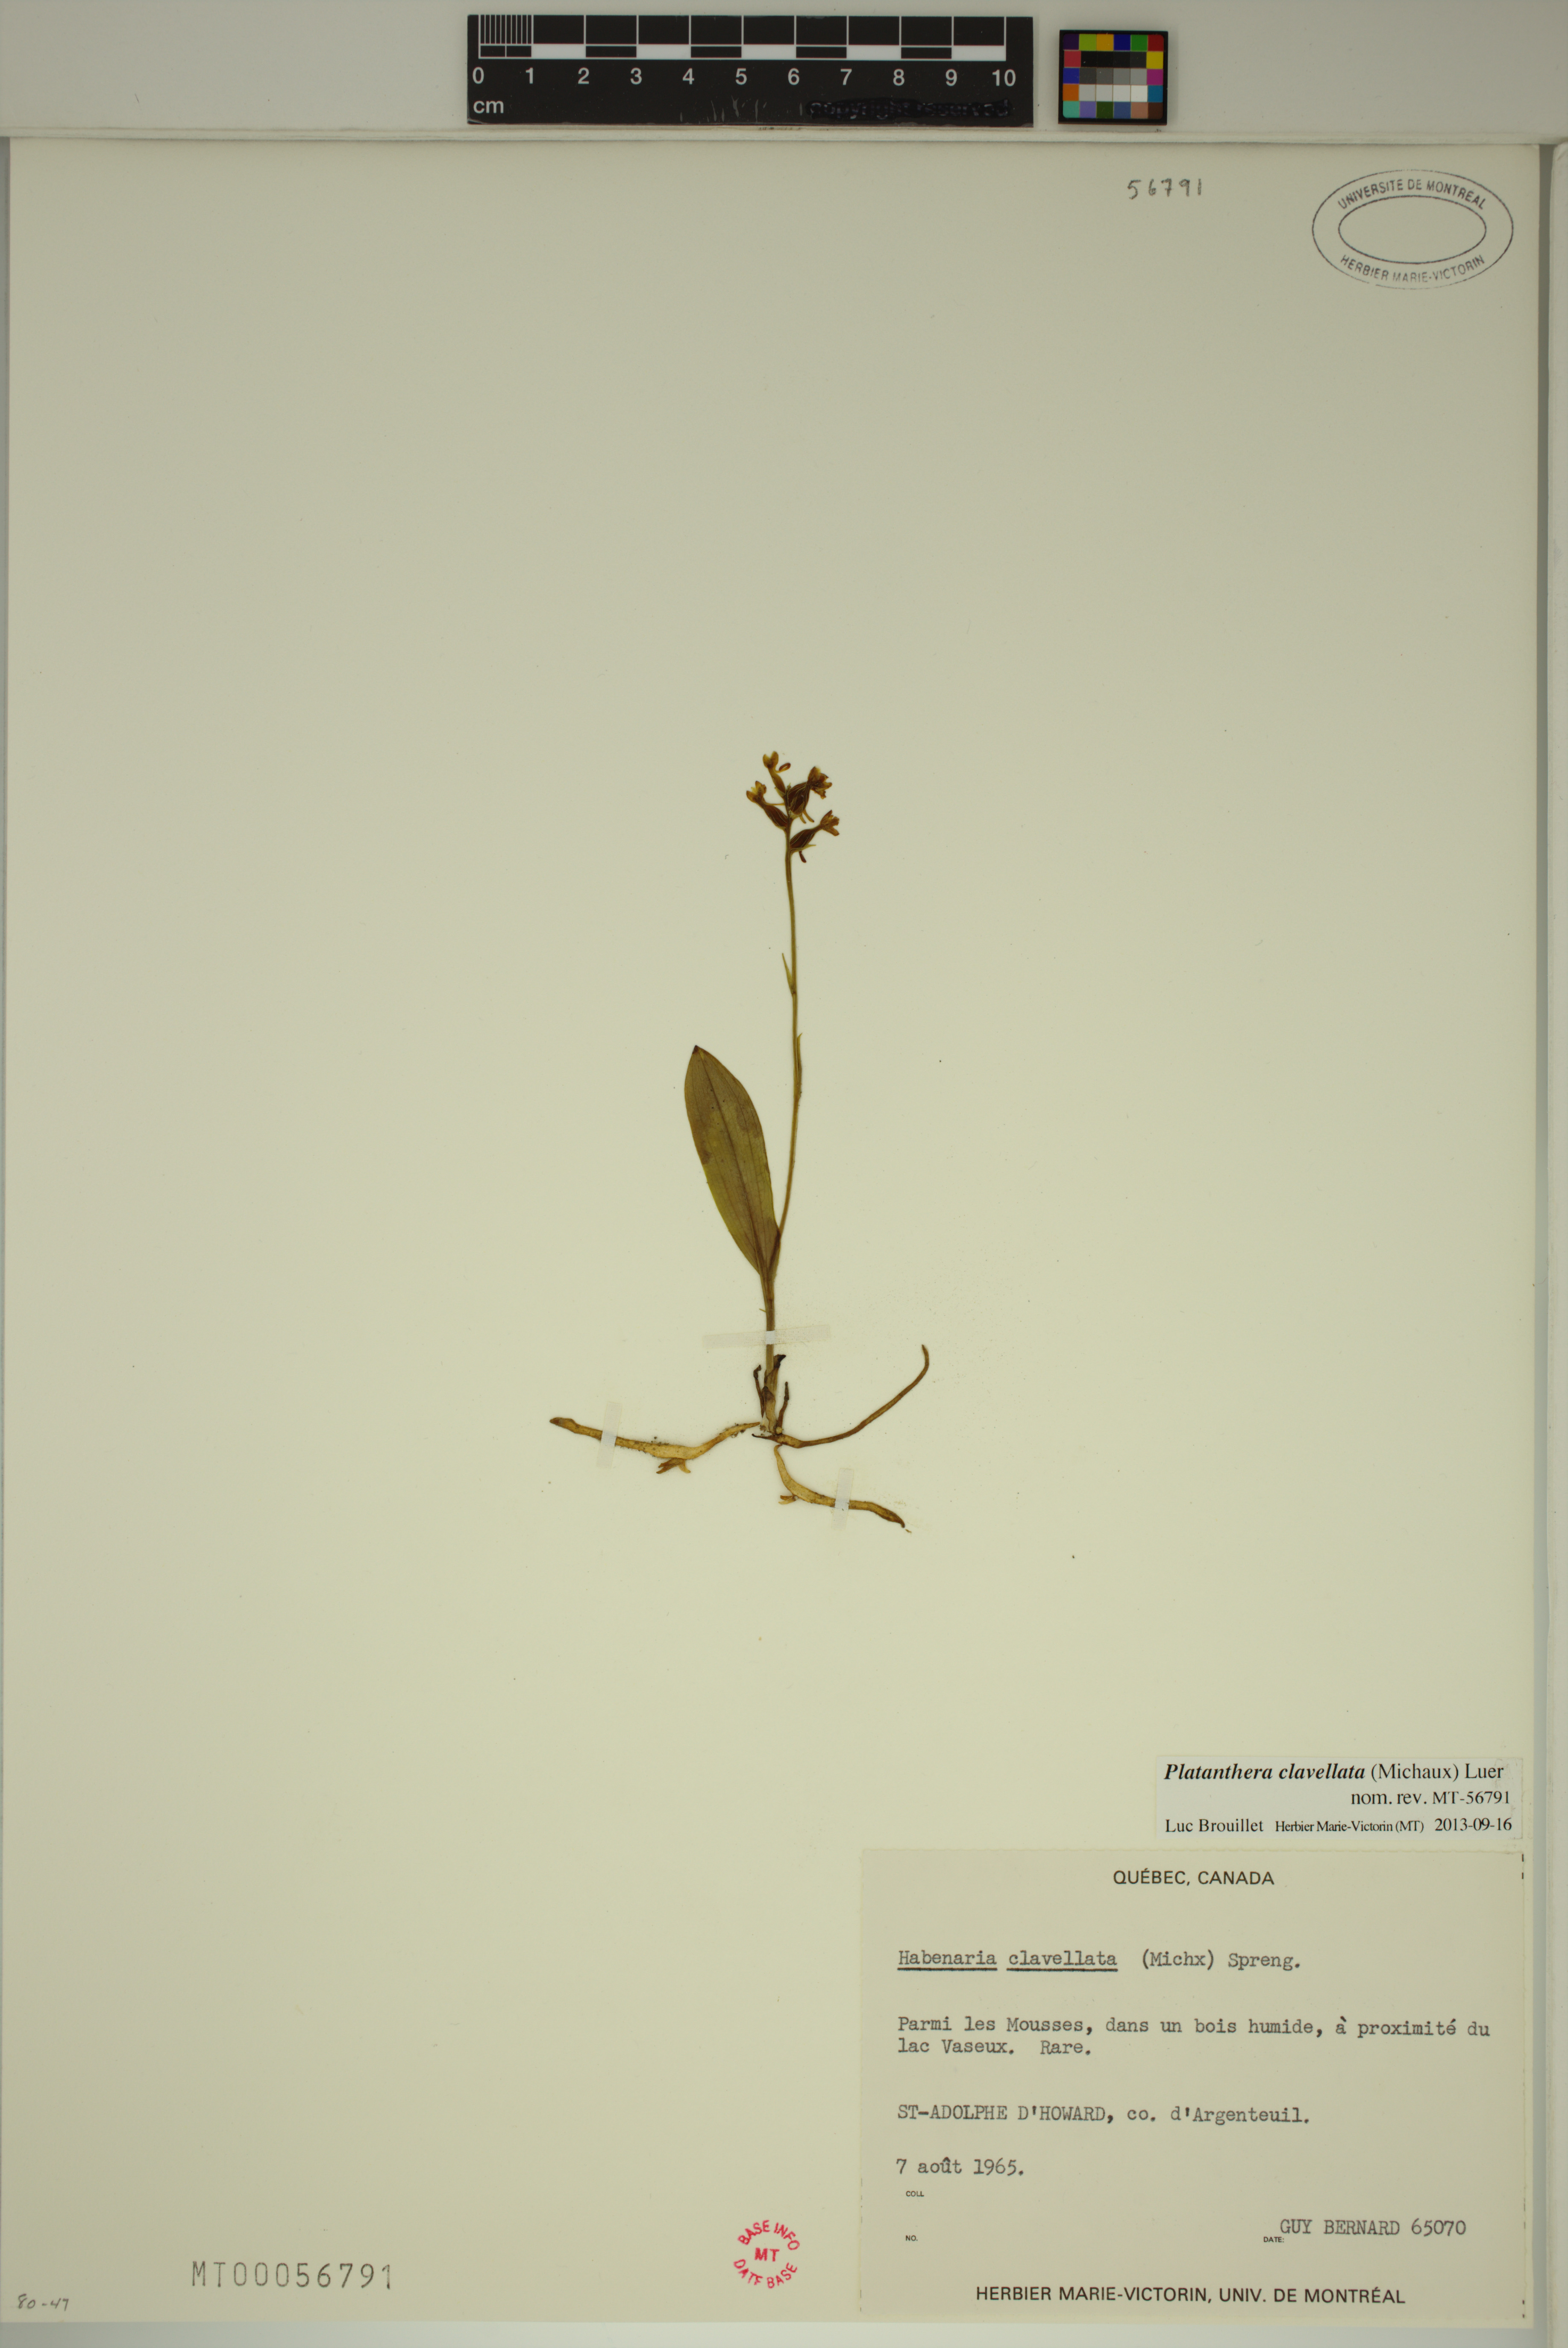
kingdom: Plantae
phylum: Tracheophyta
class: Liliopsida
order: Asparagales
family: Orchidaceae
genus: Platanthera
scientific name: Platanthera clavellata
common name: Club-spur orchid
